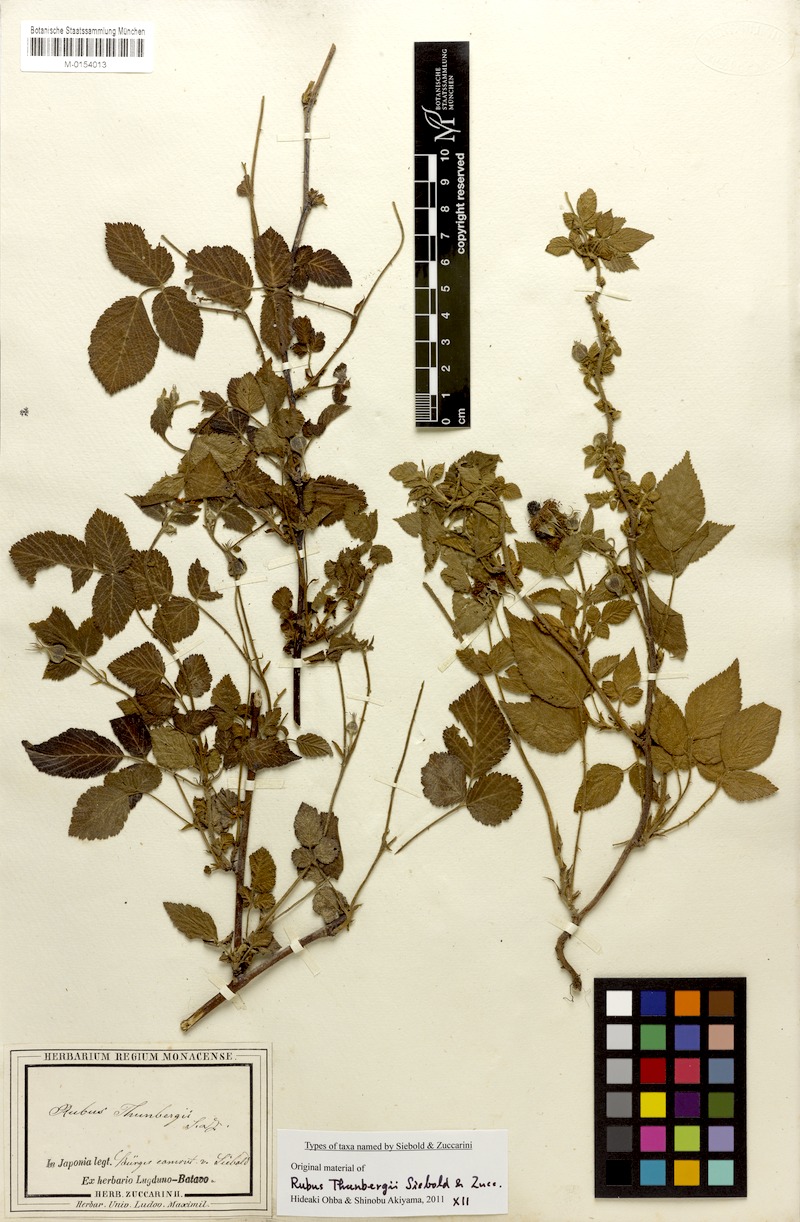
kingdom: Plantae
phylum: Tracheophyta
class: Magnoliopsida
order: Rosales
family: Rosaceae
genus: Rubus
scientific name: Rubus hirsutus
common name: Hirsute raspberry
